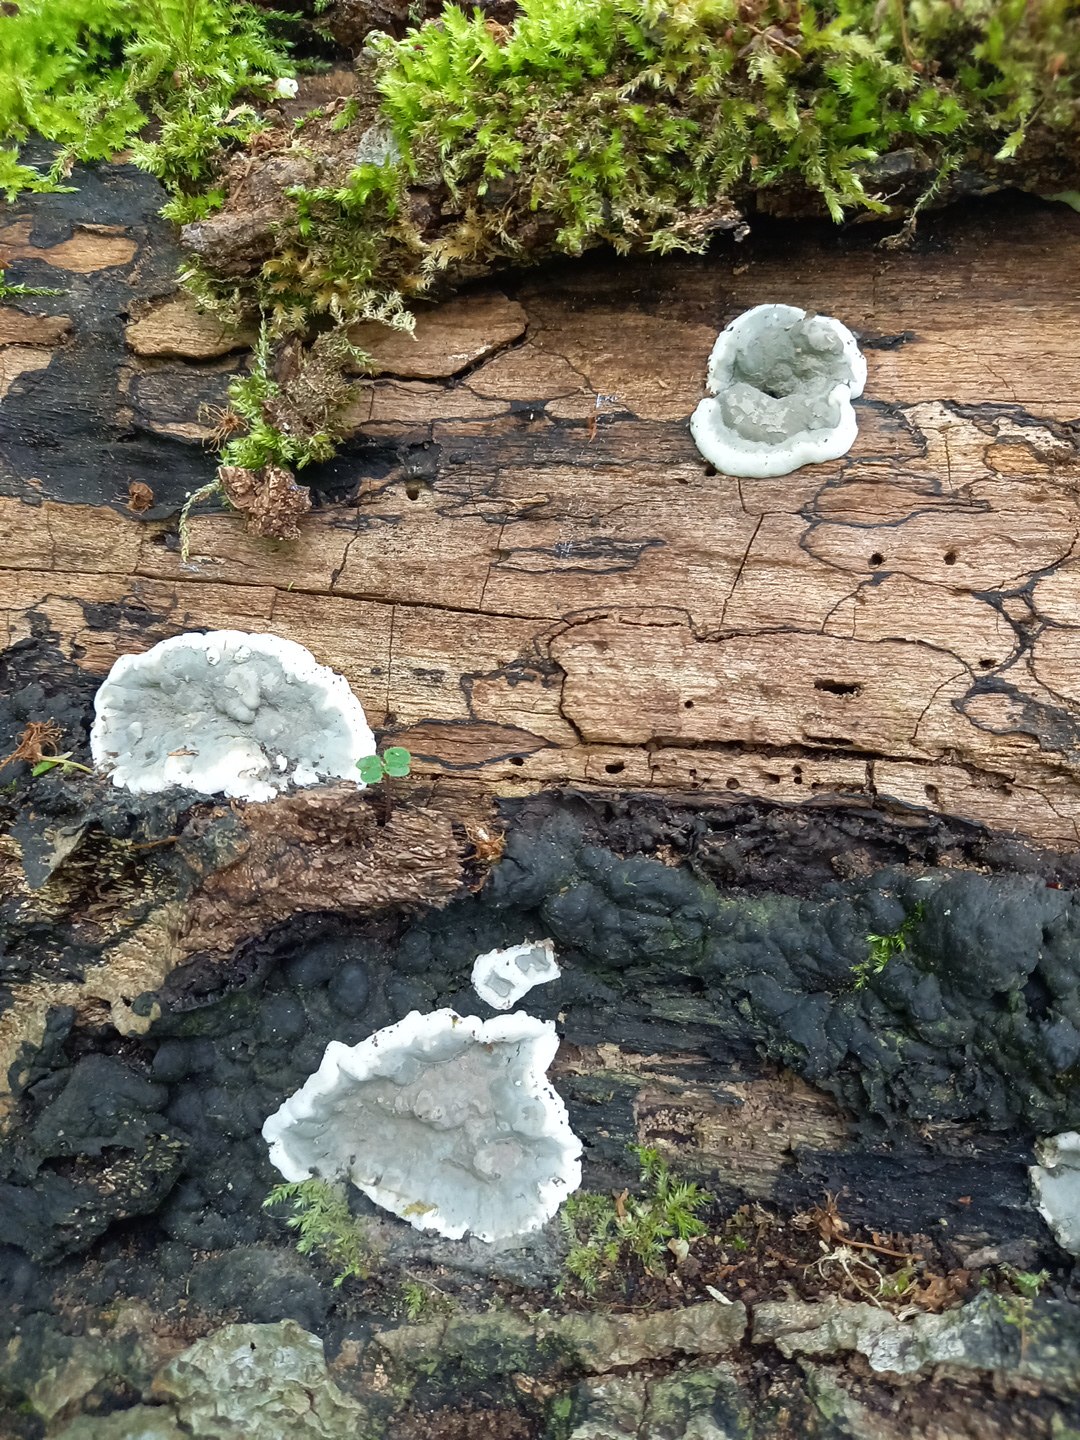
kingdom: Fungi
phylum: Ascomycota
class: Sordariomycetes
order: Xylariales
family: Xylariaceae
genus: Kretzschmaria
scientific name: Kretzschmaria deusta
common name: stor kulsvamp
